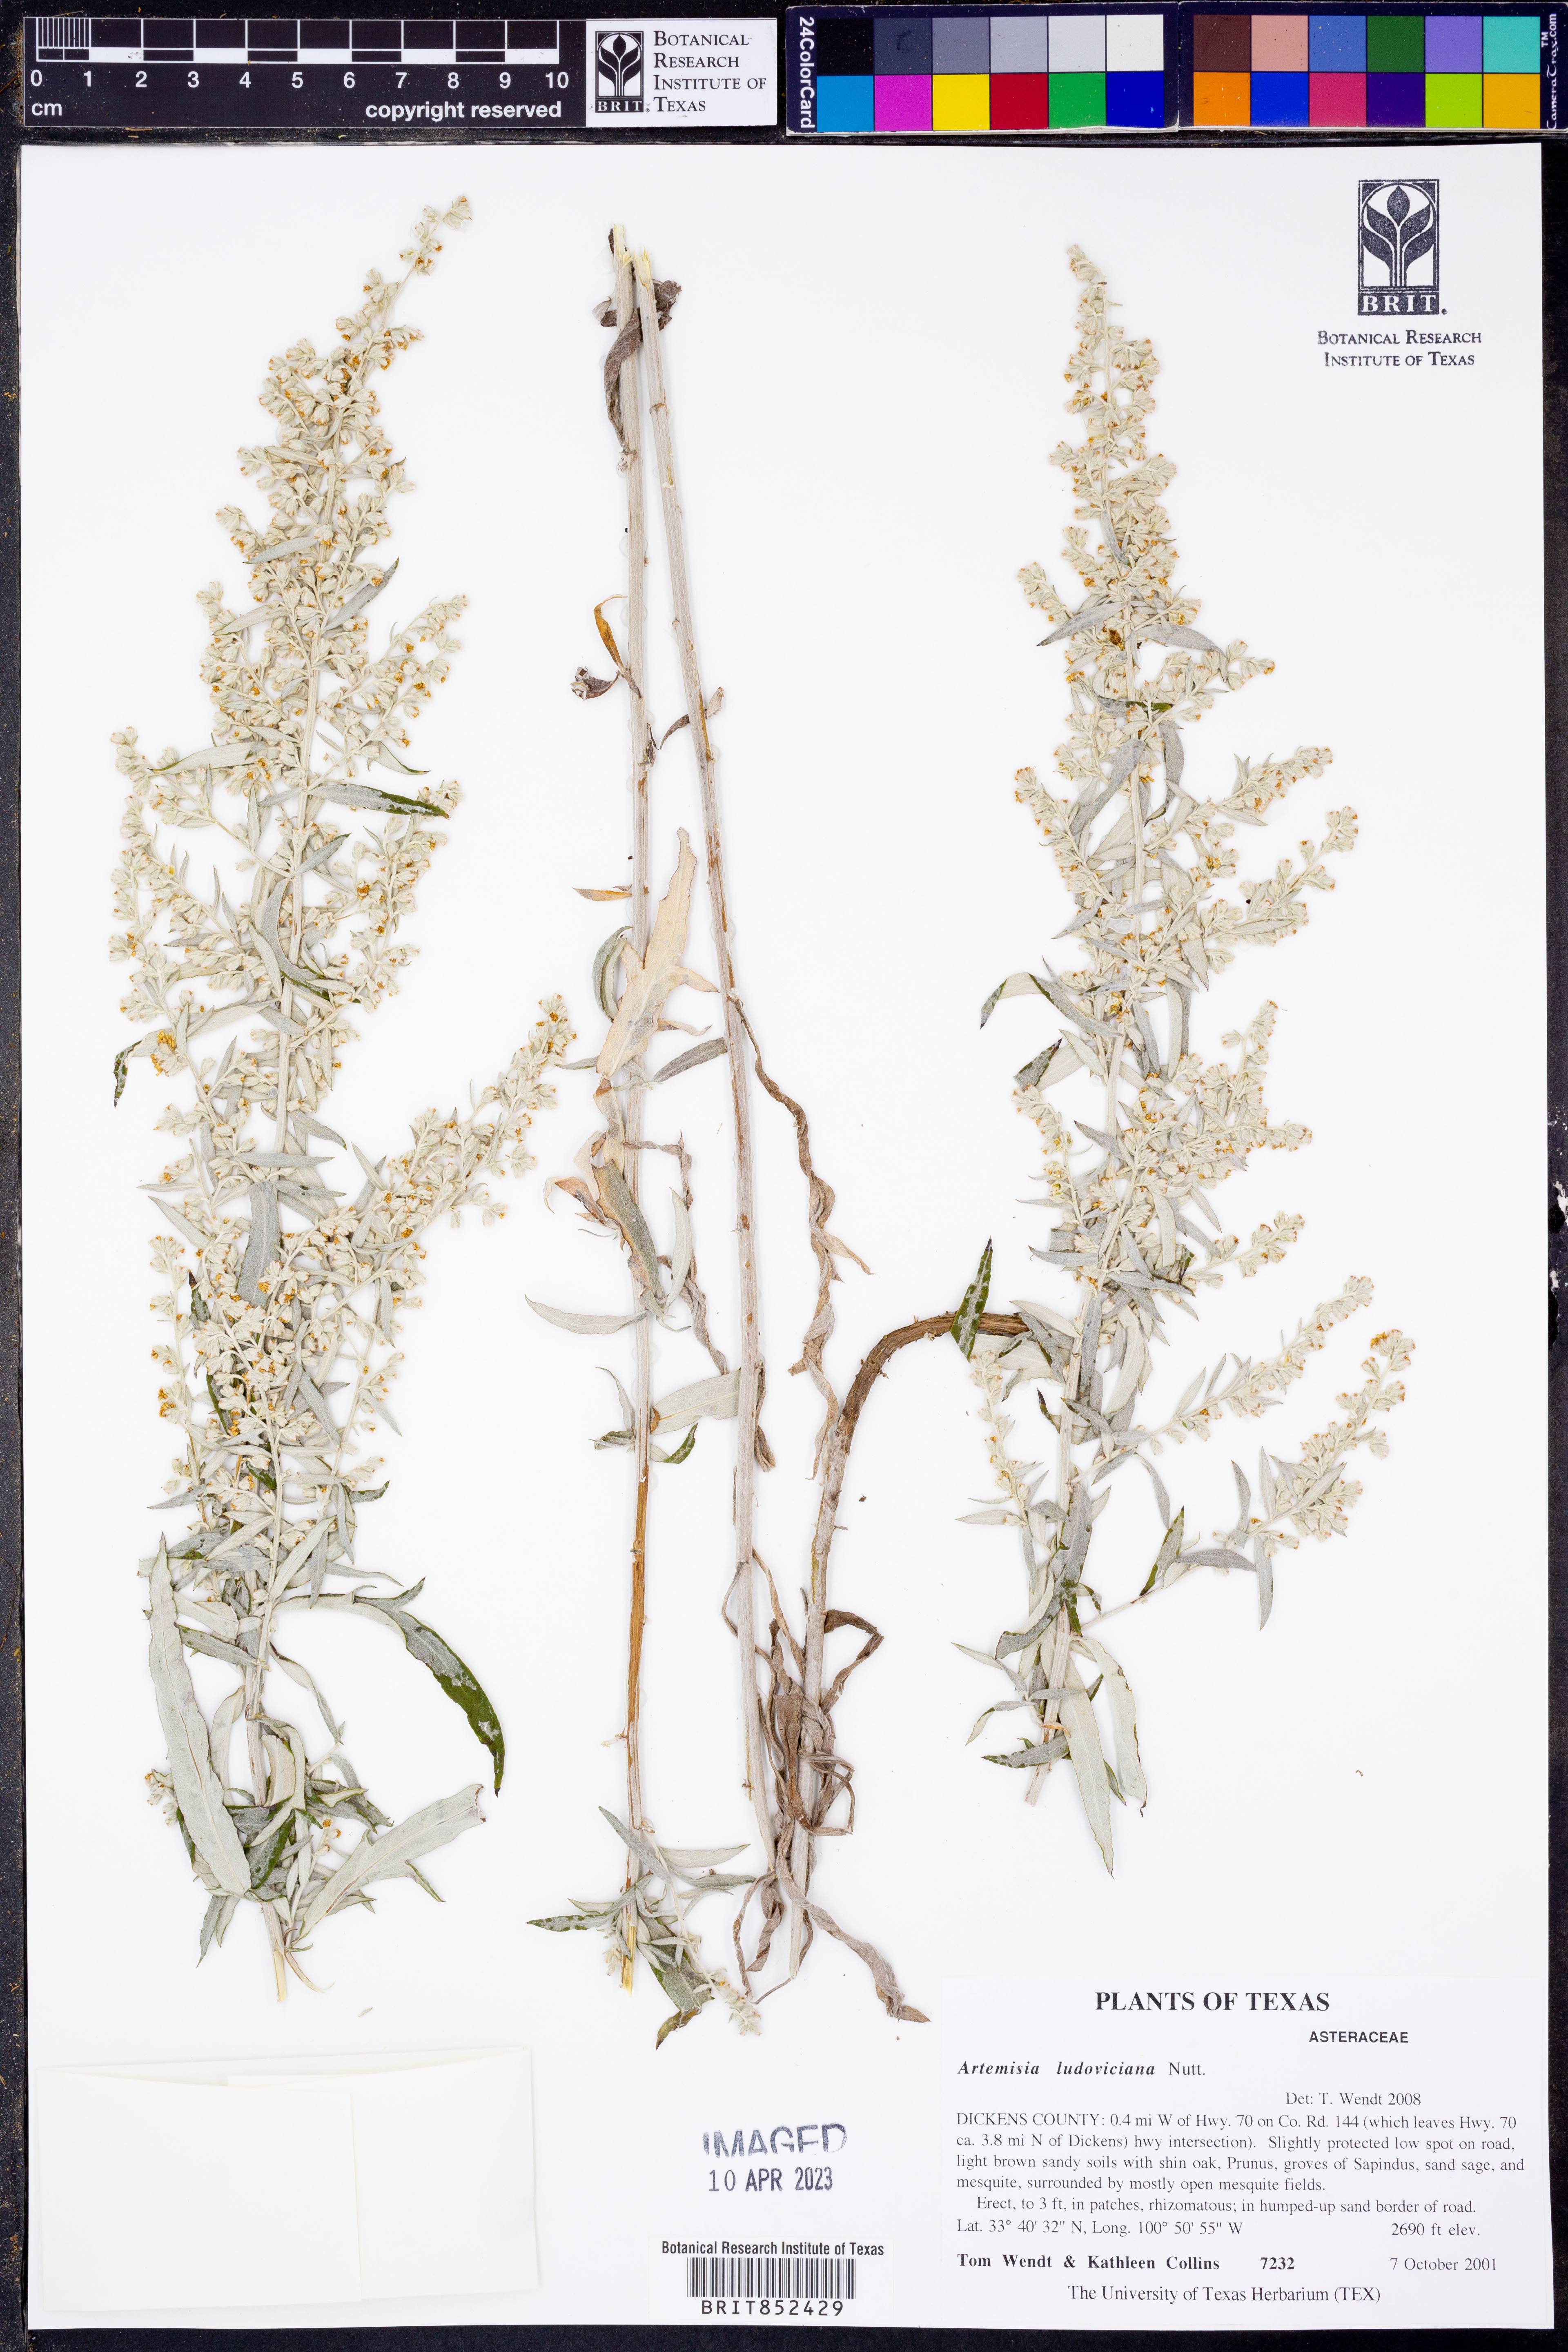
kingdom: Plantae
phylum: Tracheophyta
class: Magnoliopsida
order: Asterales
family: Asteraceae
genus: Artemisia
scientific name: Artemisia ludoviciana
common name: Western mugwort
